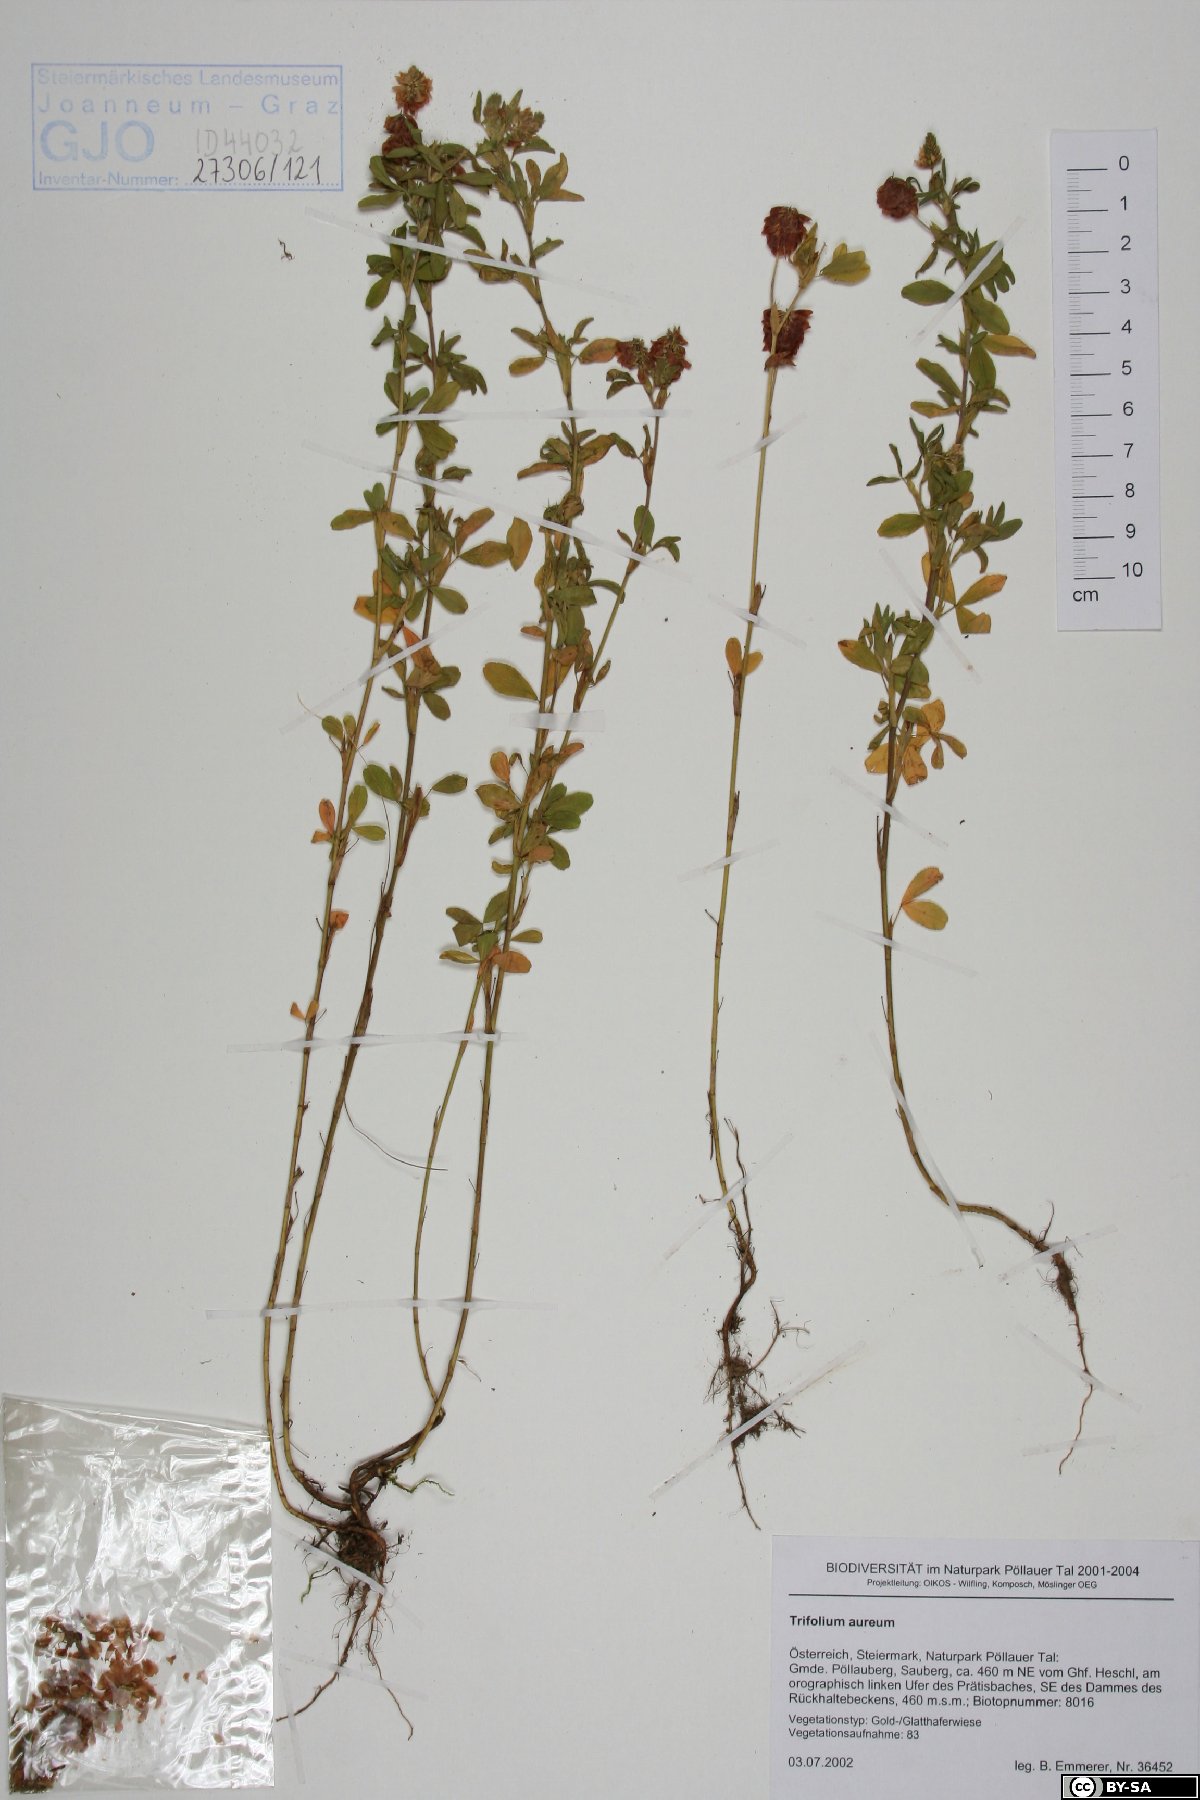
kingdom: Plantae
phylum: Tracheophyta
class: Magnoliopsida
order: Fabales
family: Fabaceae
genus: Trifolium
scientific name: Trifolium aureum
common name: Golden clover
